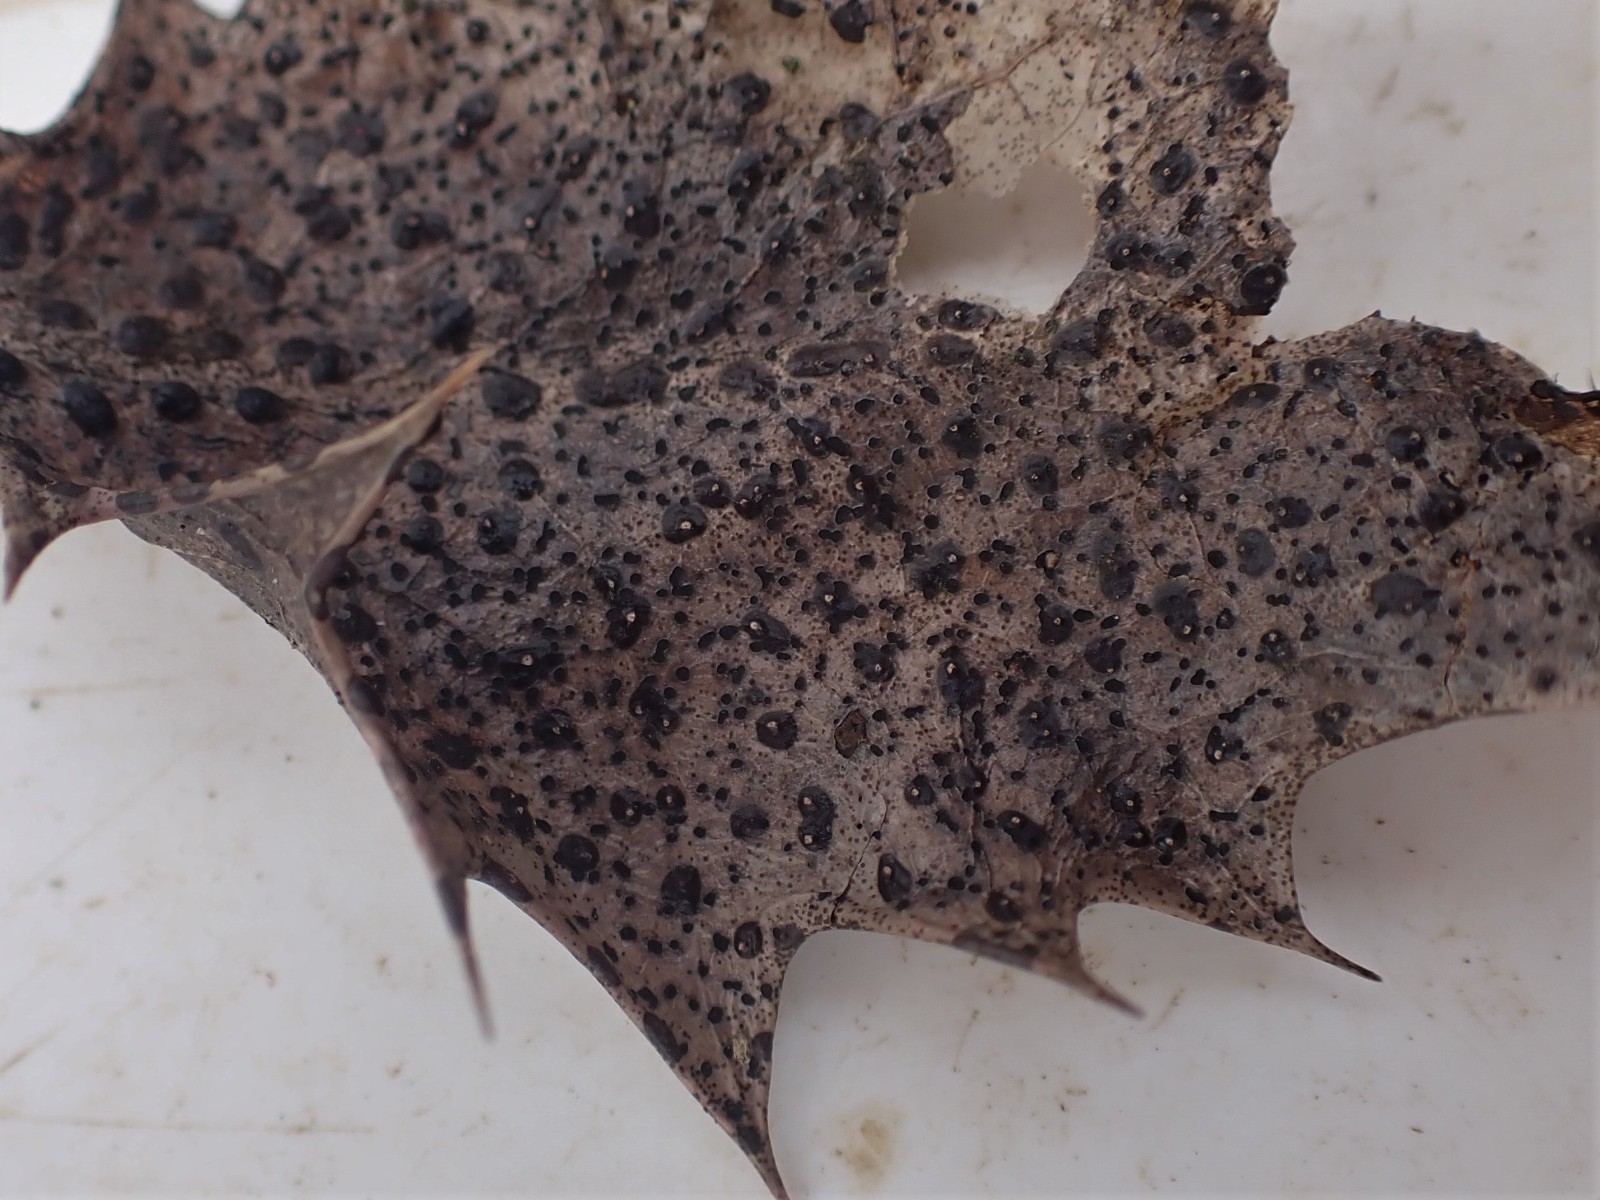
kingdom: Fungi
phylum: Ascomycota
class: Leotiomycetes
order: Phacidiales
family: Phacidiaceae
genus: Phacidium
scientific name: Phacidium lauri
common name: kristtorn-tandskive
